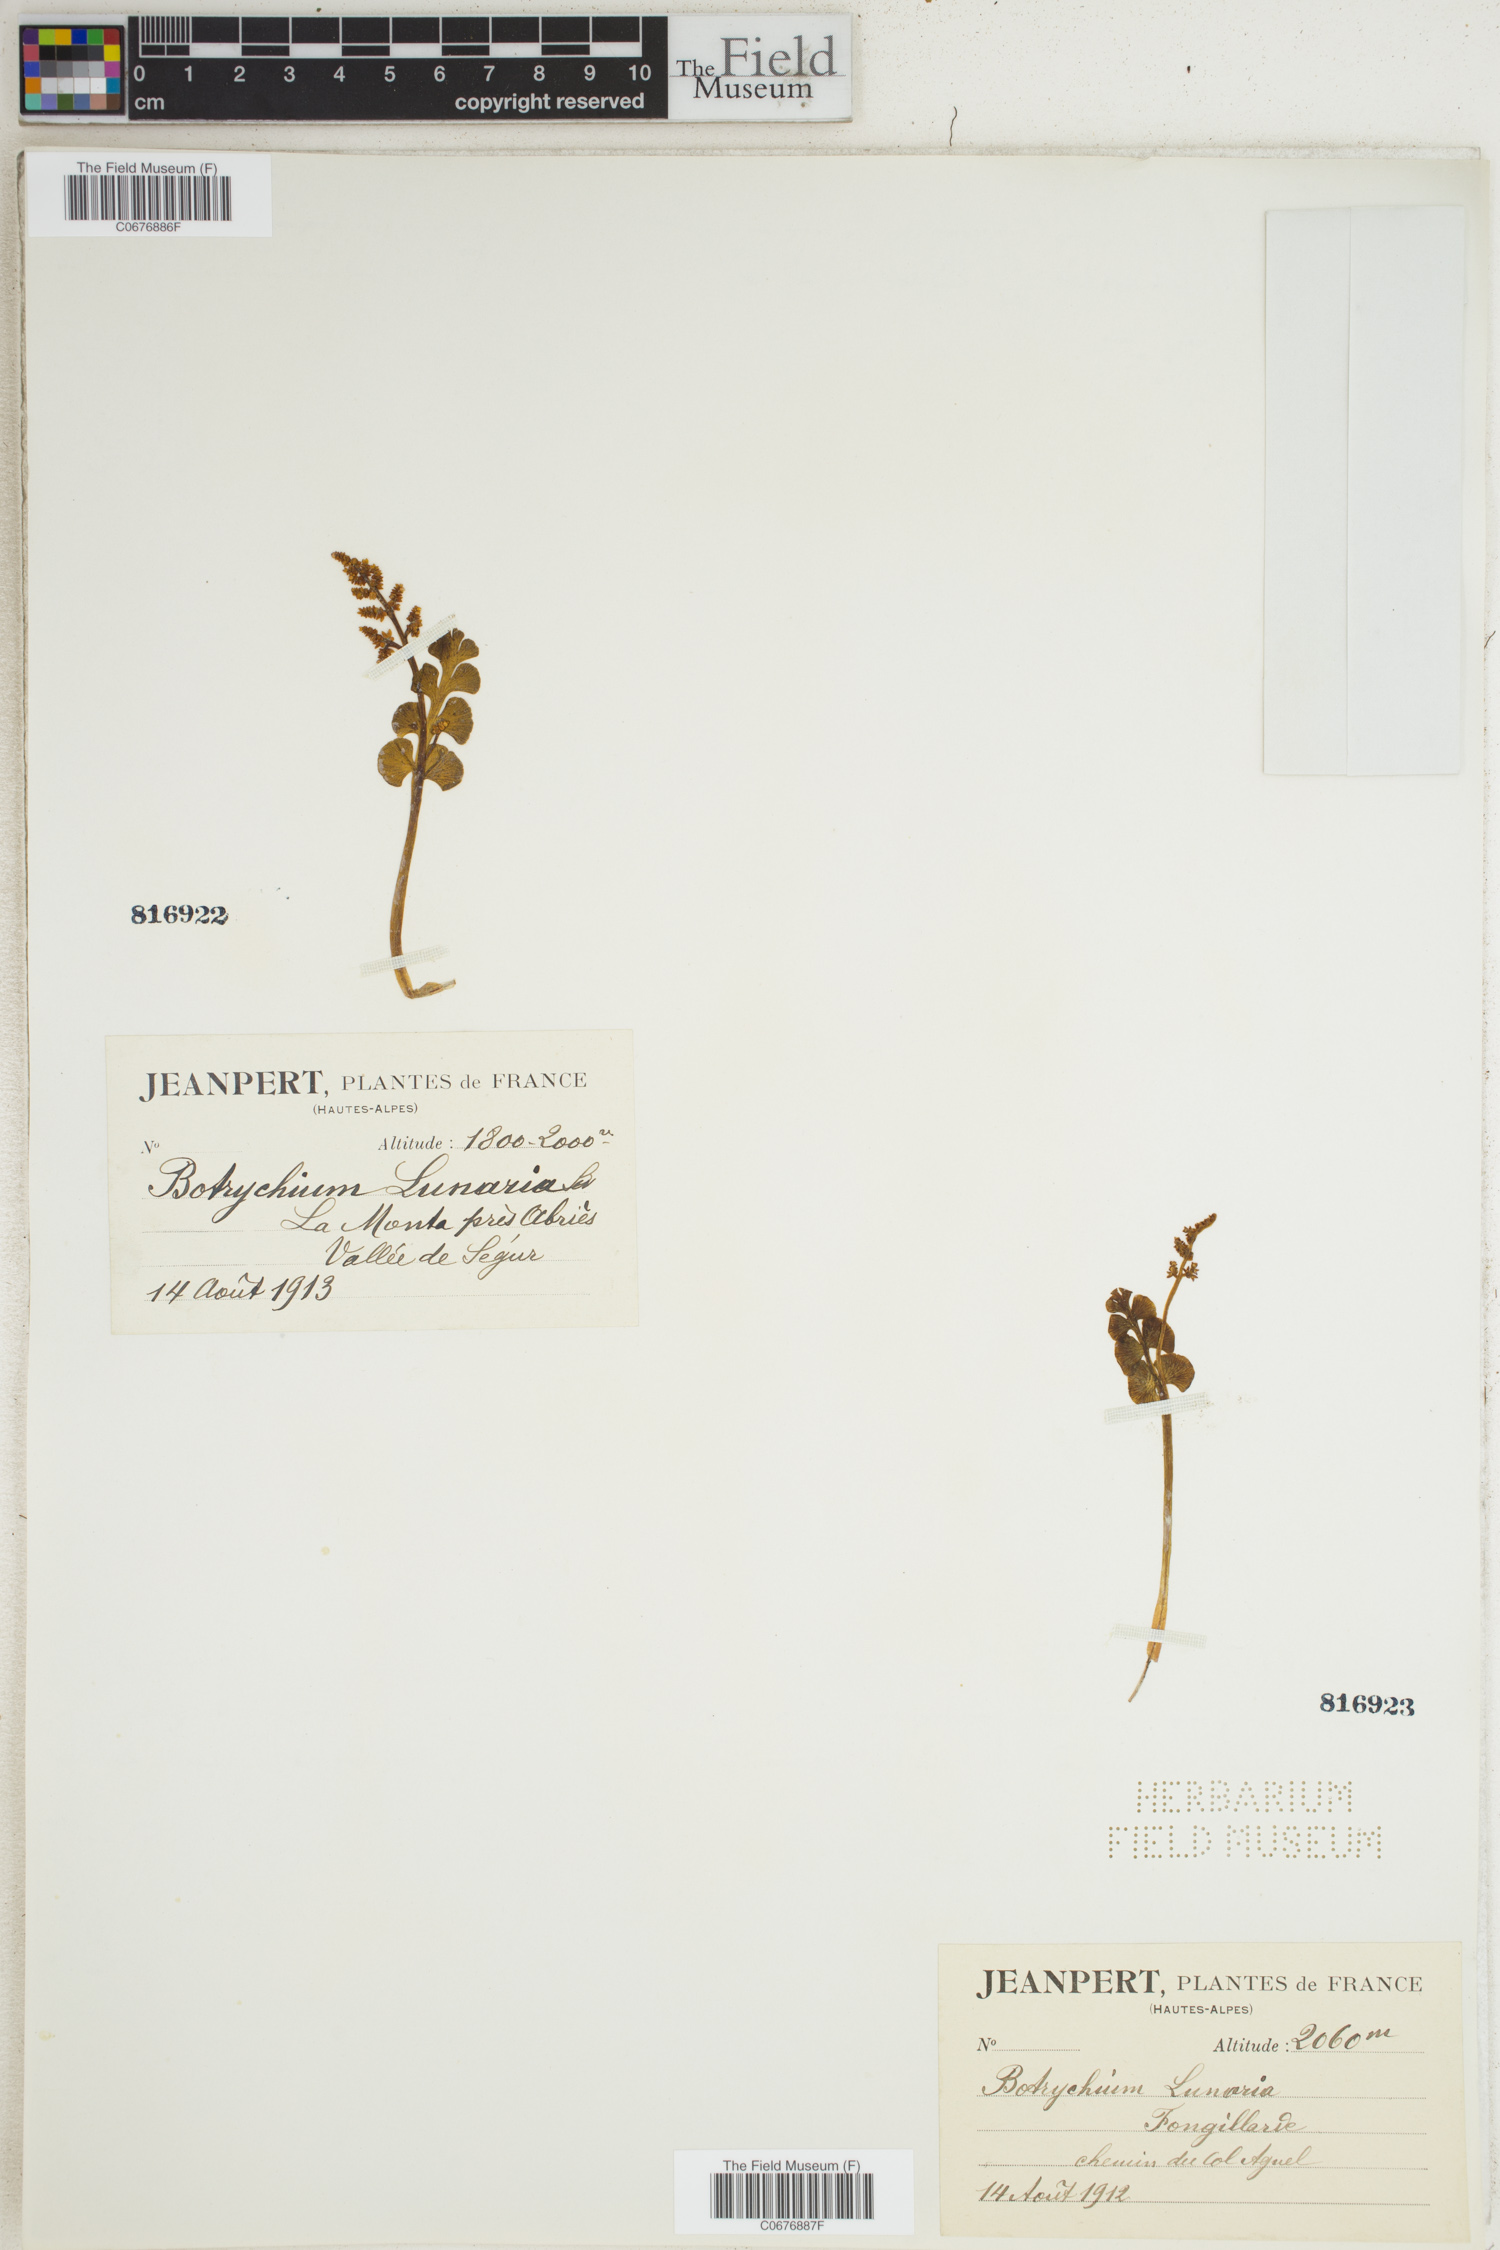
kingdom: Plantae
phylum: Tracheophyta
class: Polypodiopsida
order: Ophioglossales
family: Ophioglossaceae
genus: Botrychium
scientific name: Botrychium lunaria
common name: Moonwort
